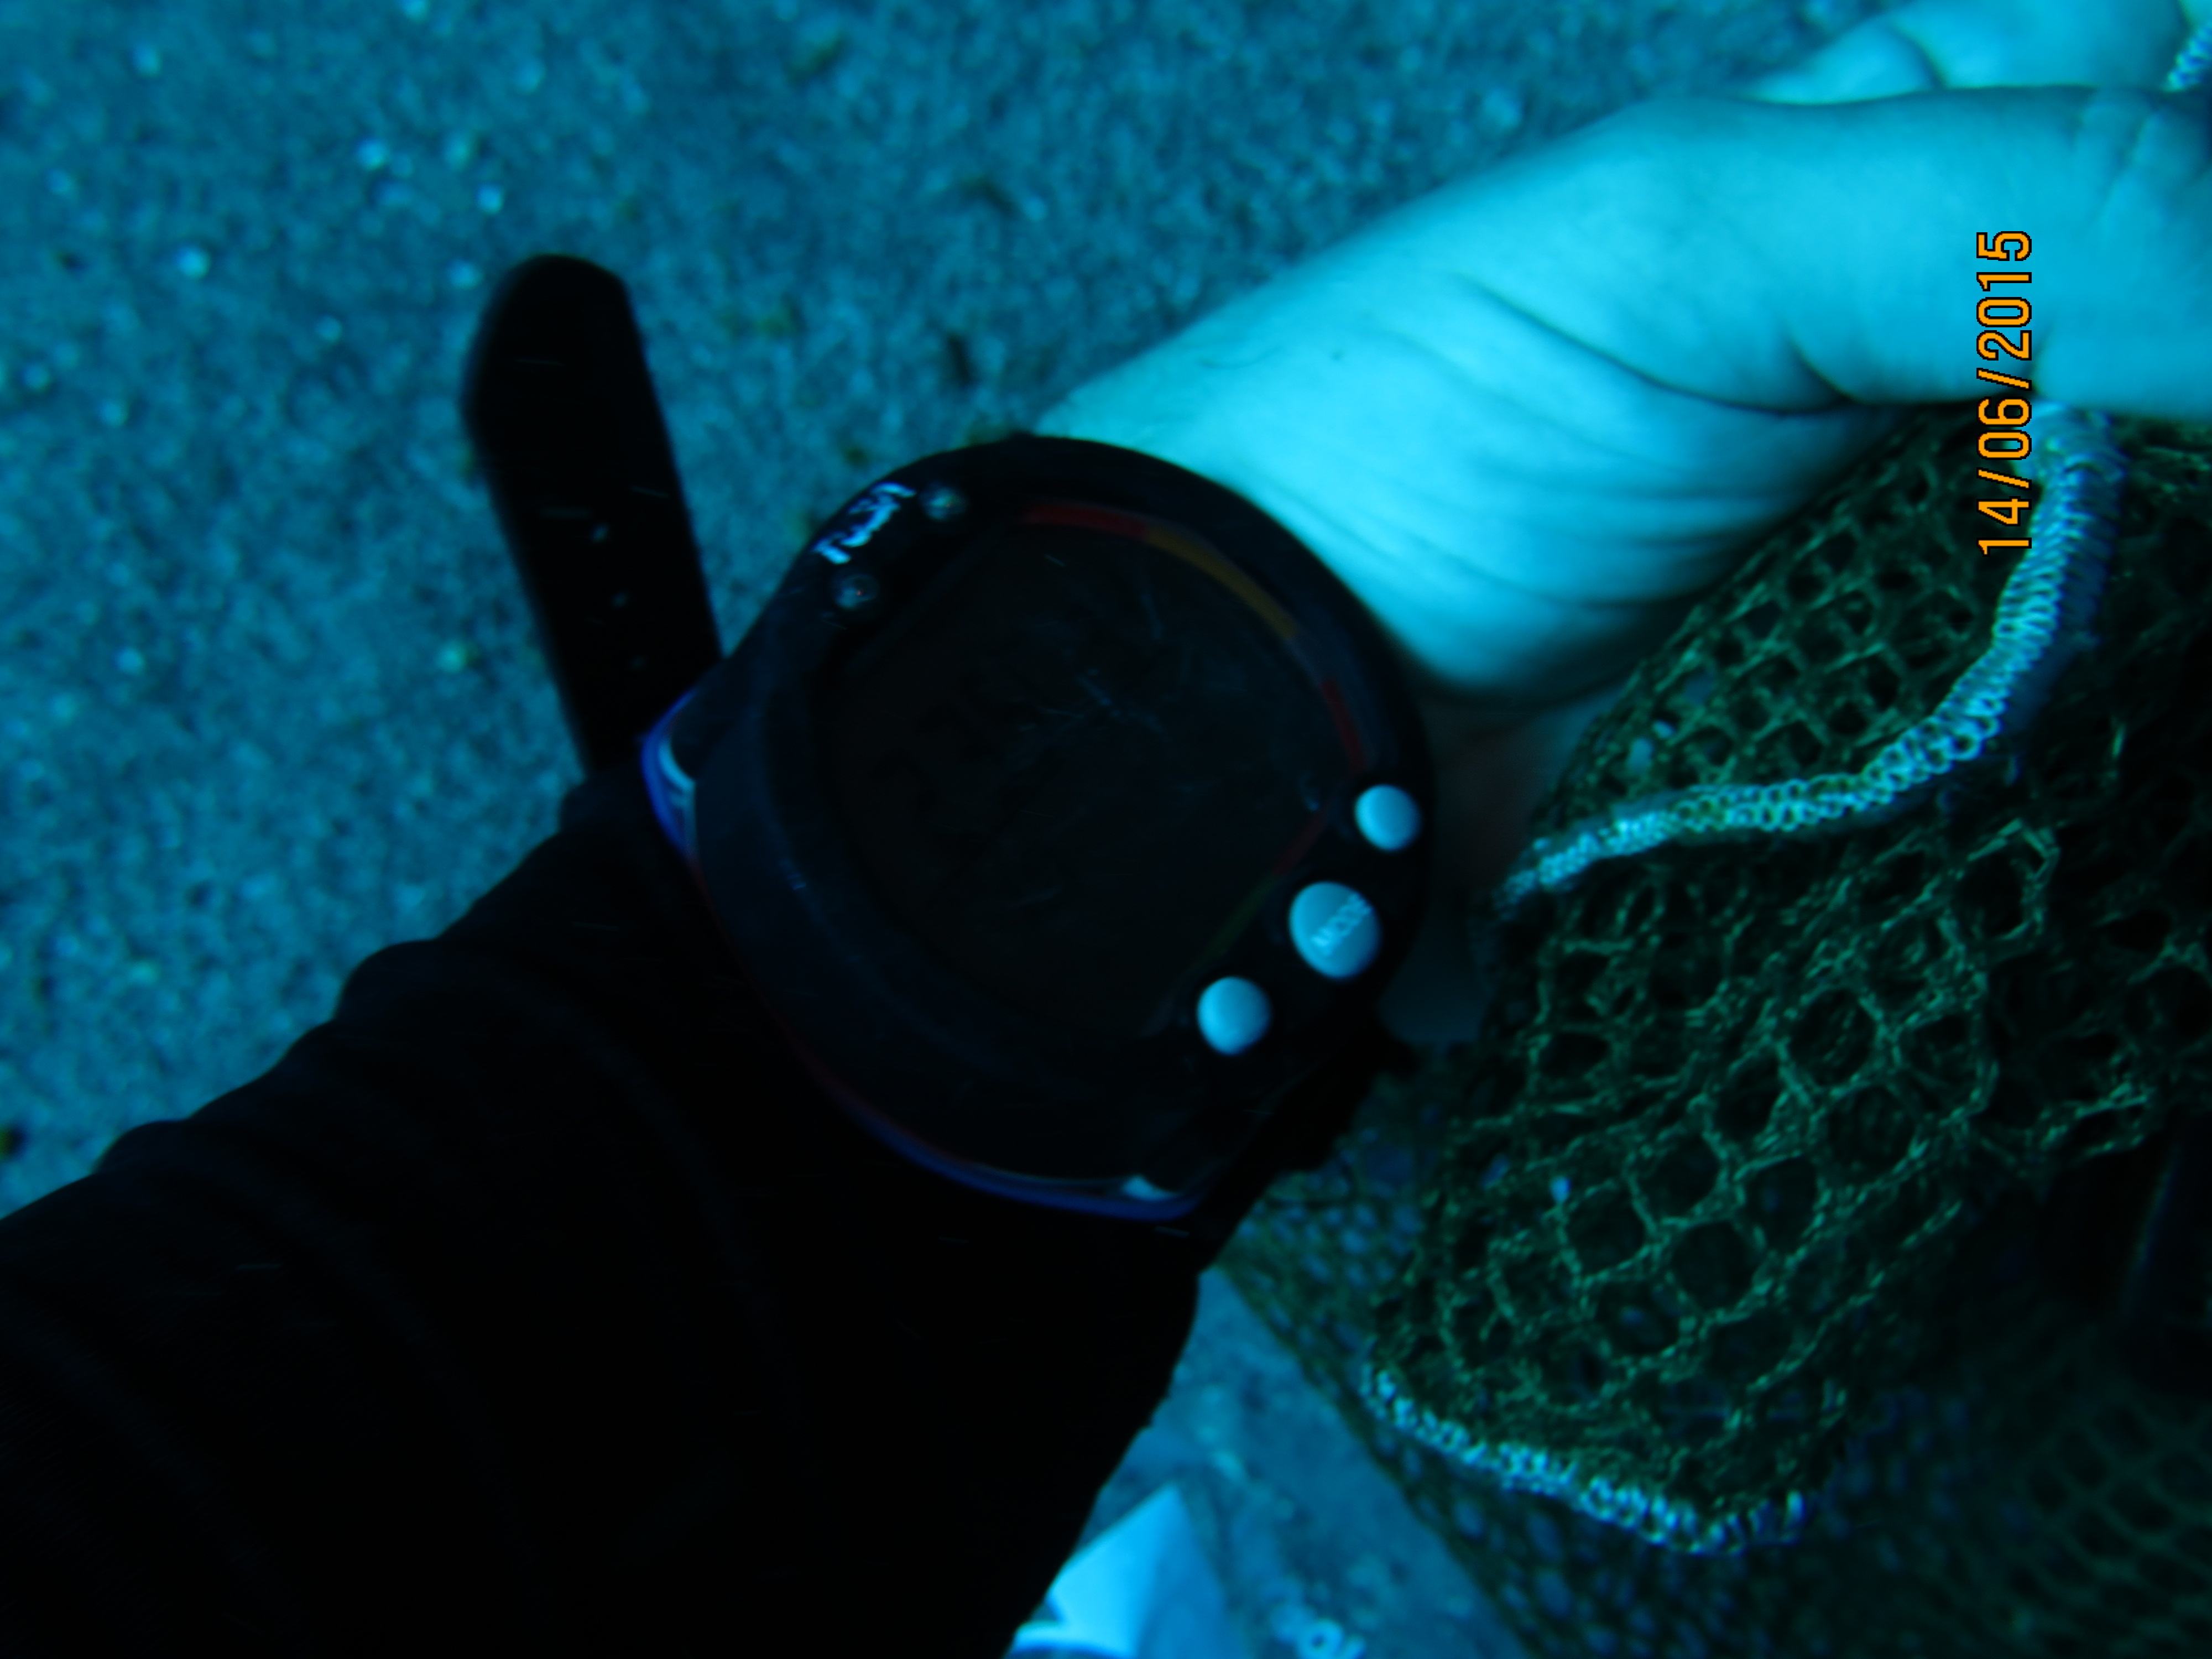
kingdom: Animalia
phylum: Cnidaria
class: Anthozoa
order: Scleractinia
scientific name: Scleractinia
